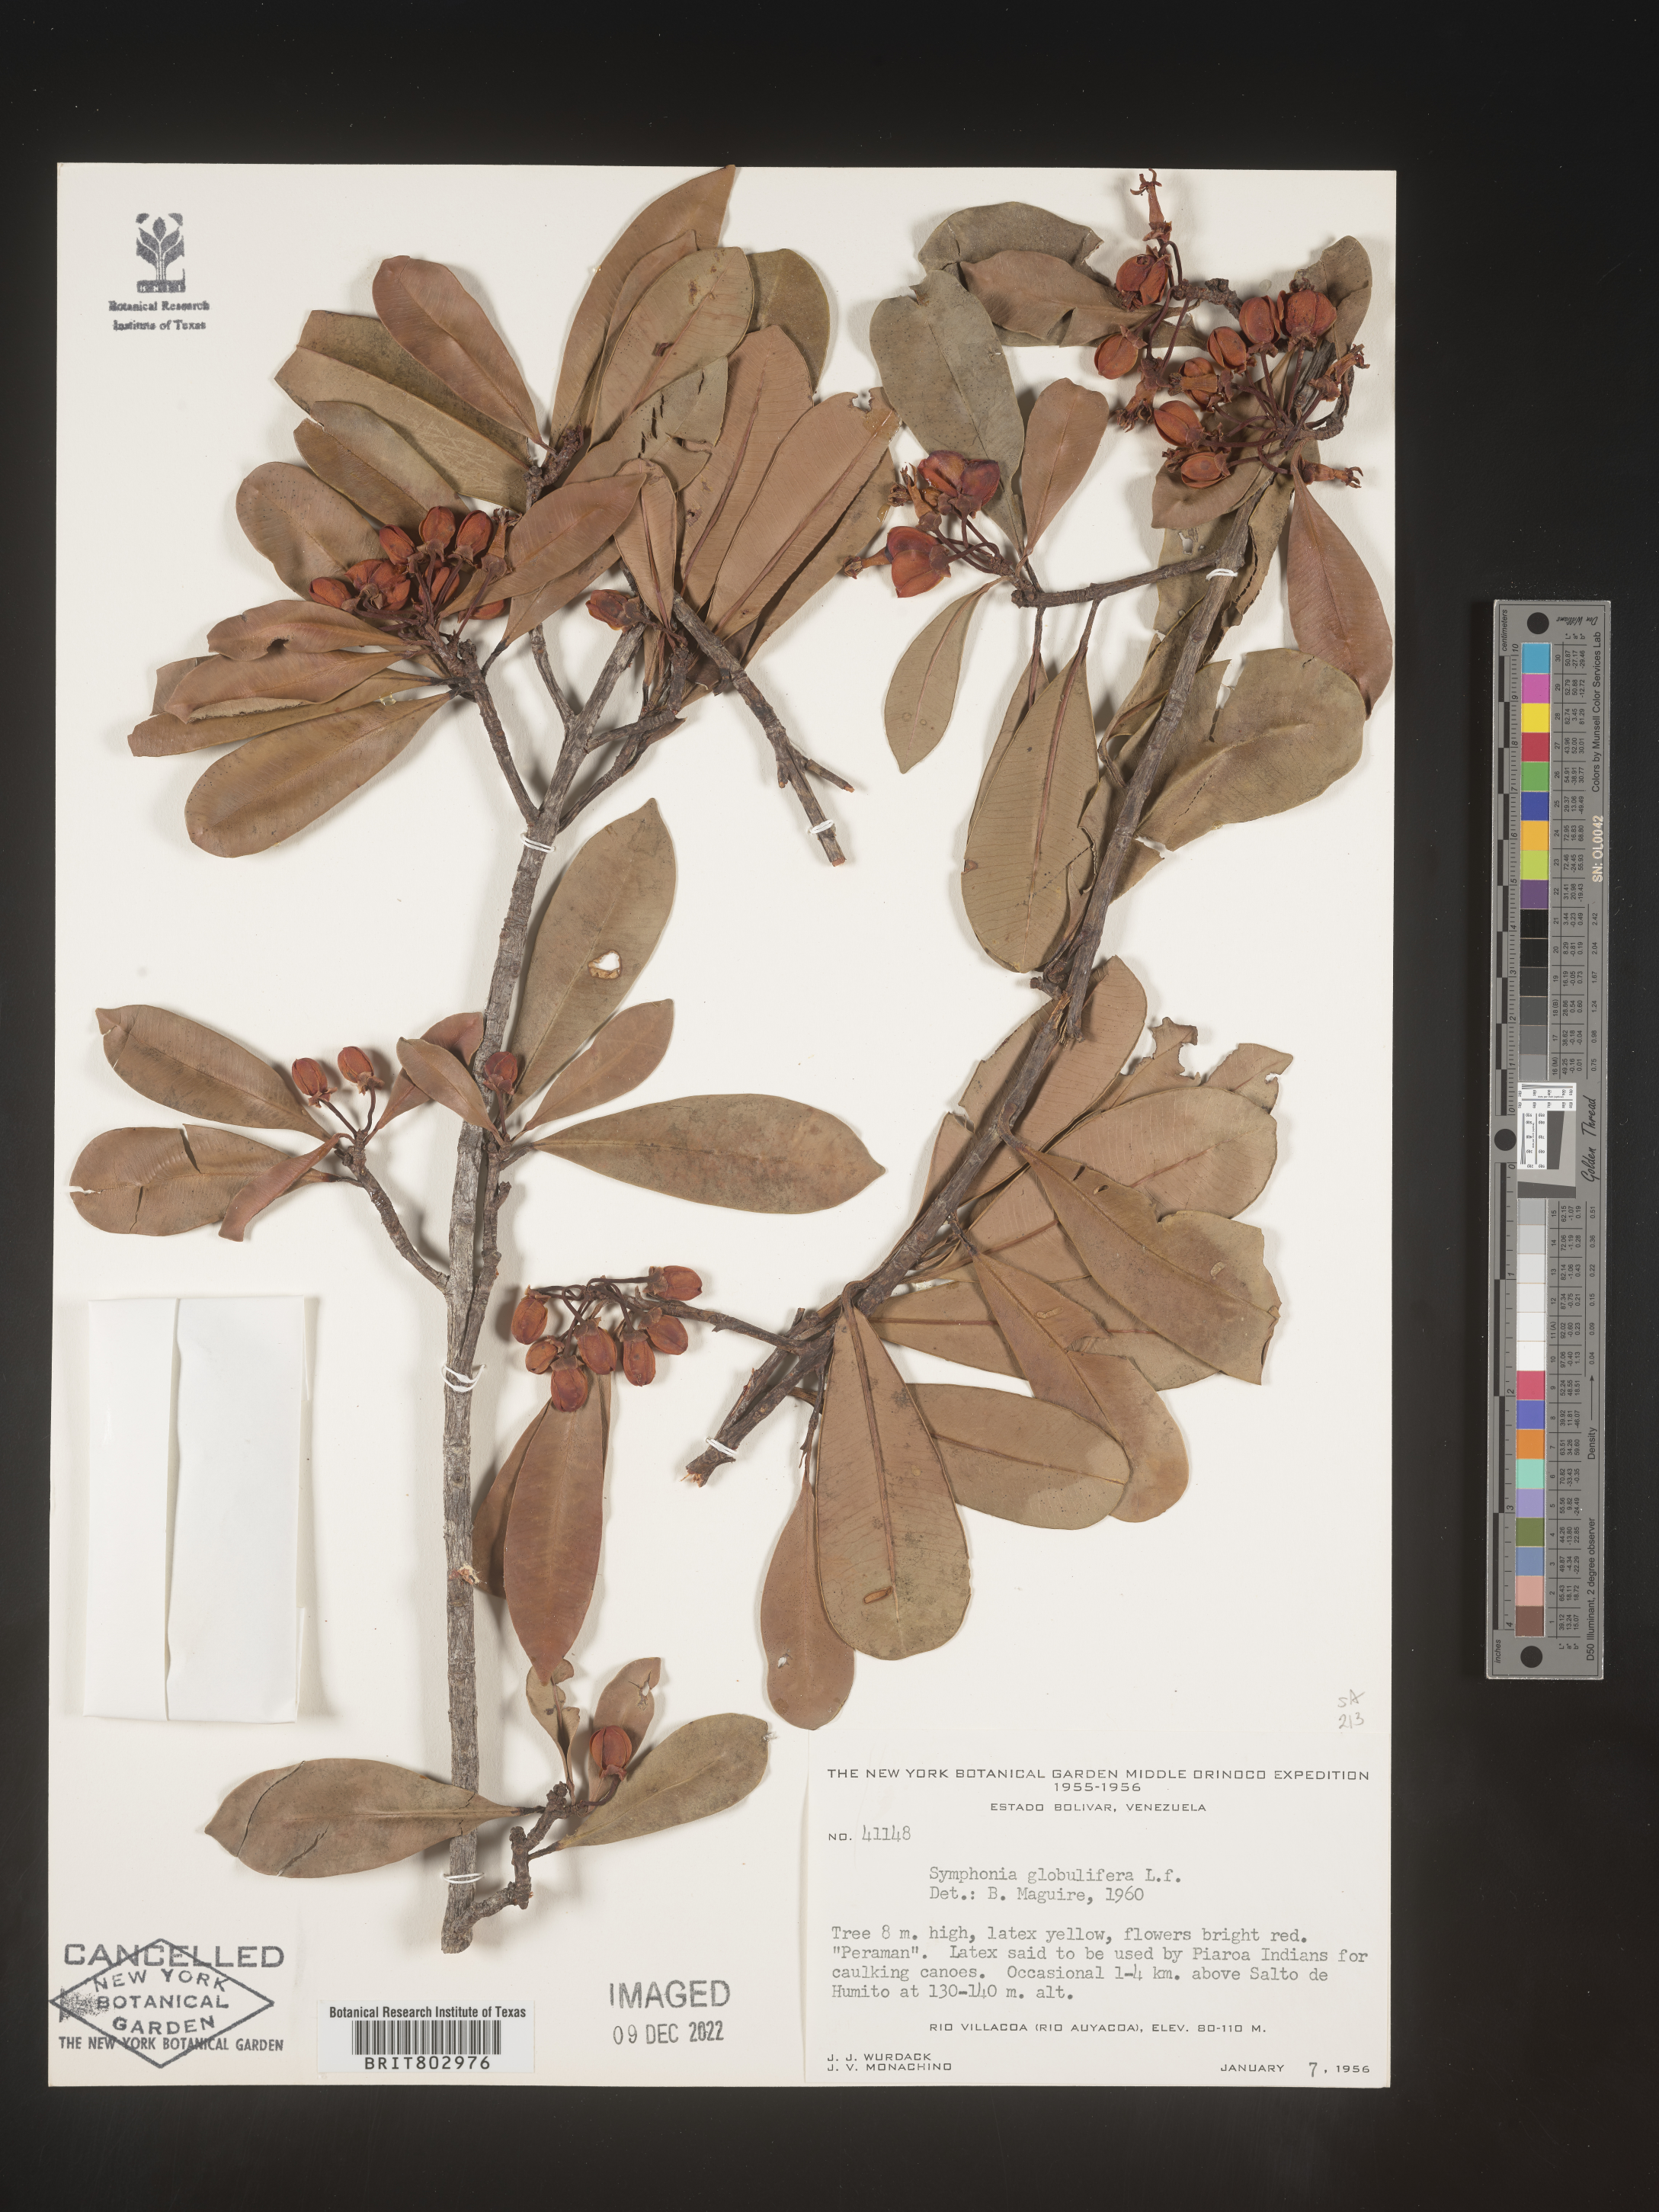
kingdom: Plantae
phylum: Tracheophyta
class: Magnoliopsida
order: Malpighiales
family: Clusiaceae
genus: Symphonia
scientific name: Symphonia globulifera
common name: Boarwood
